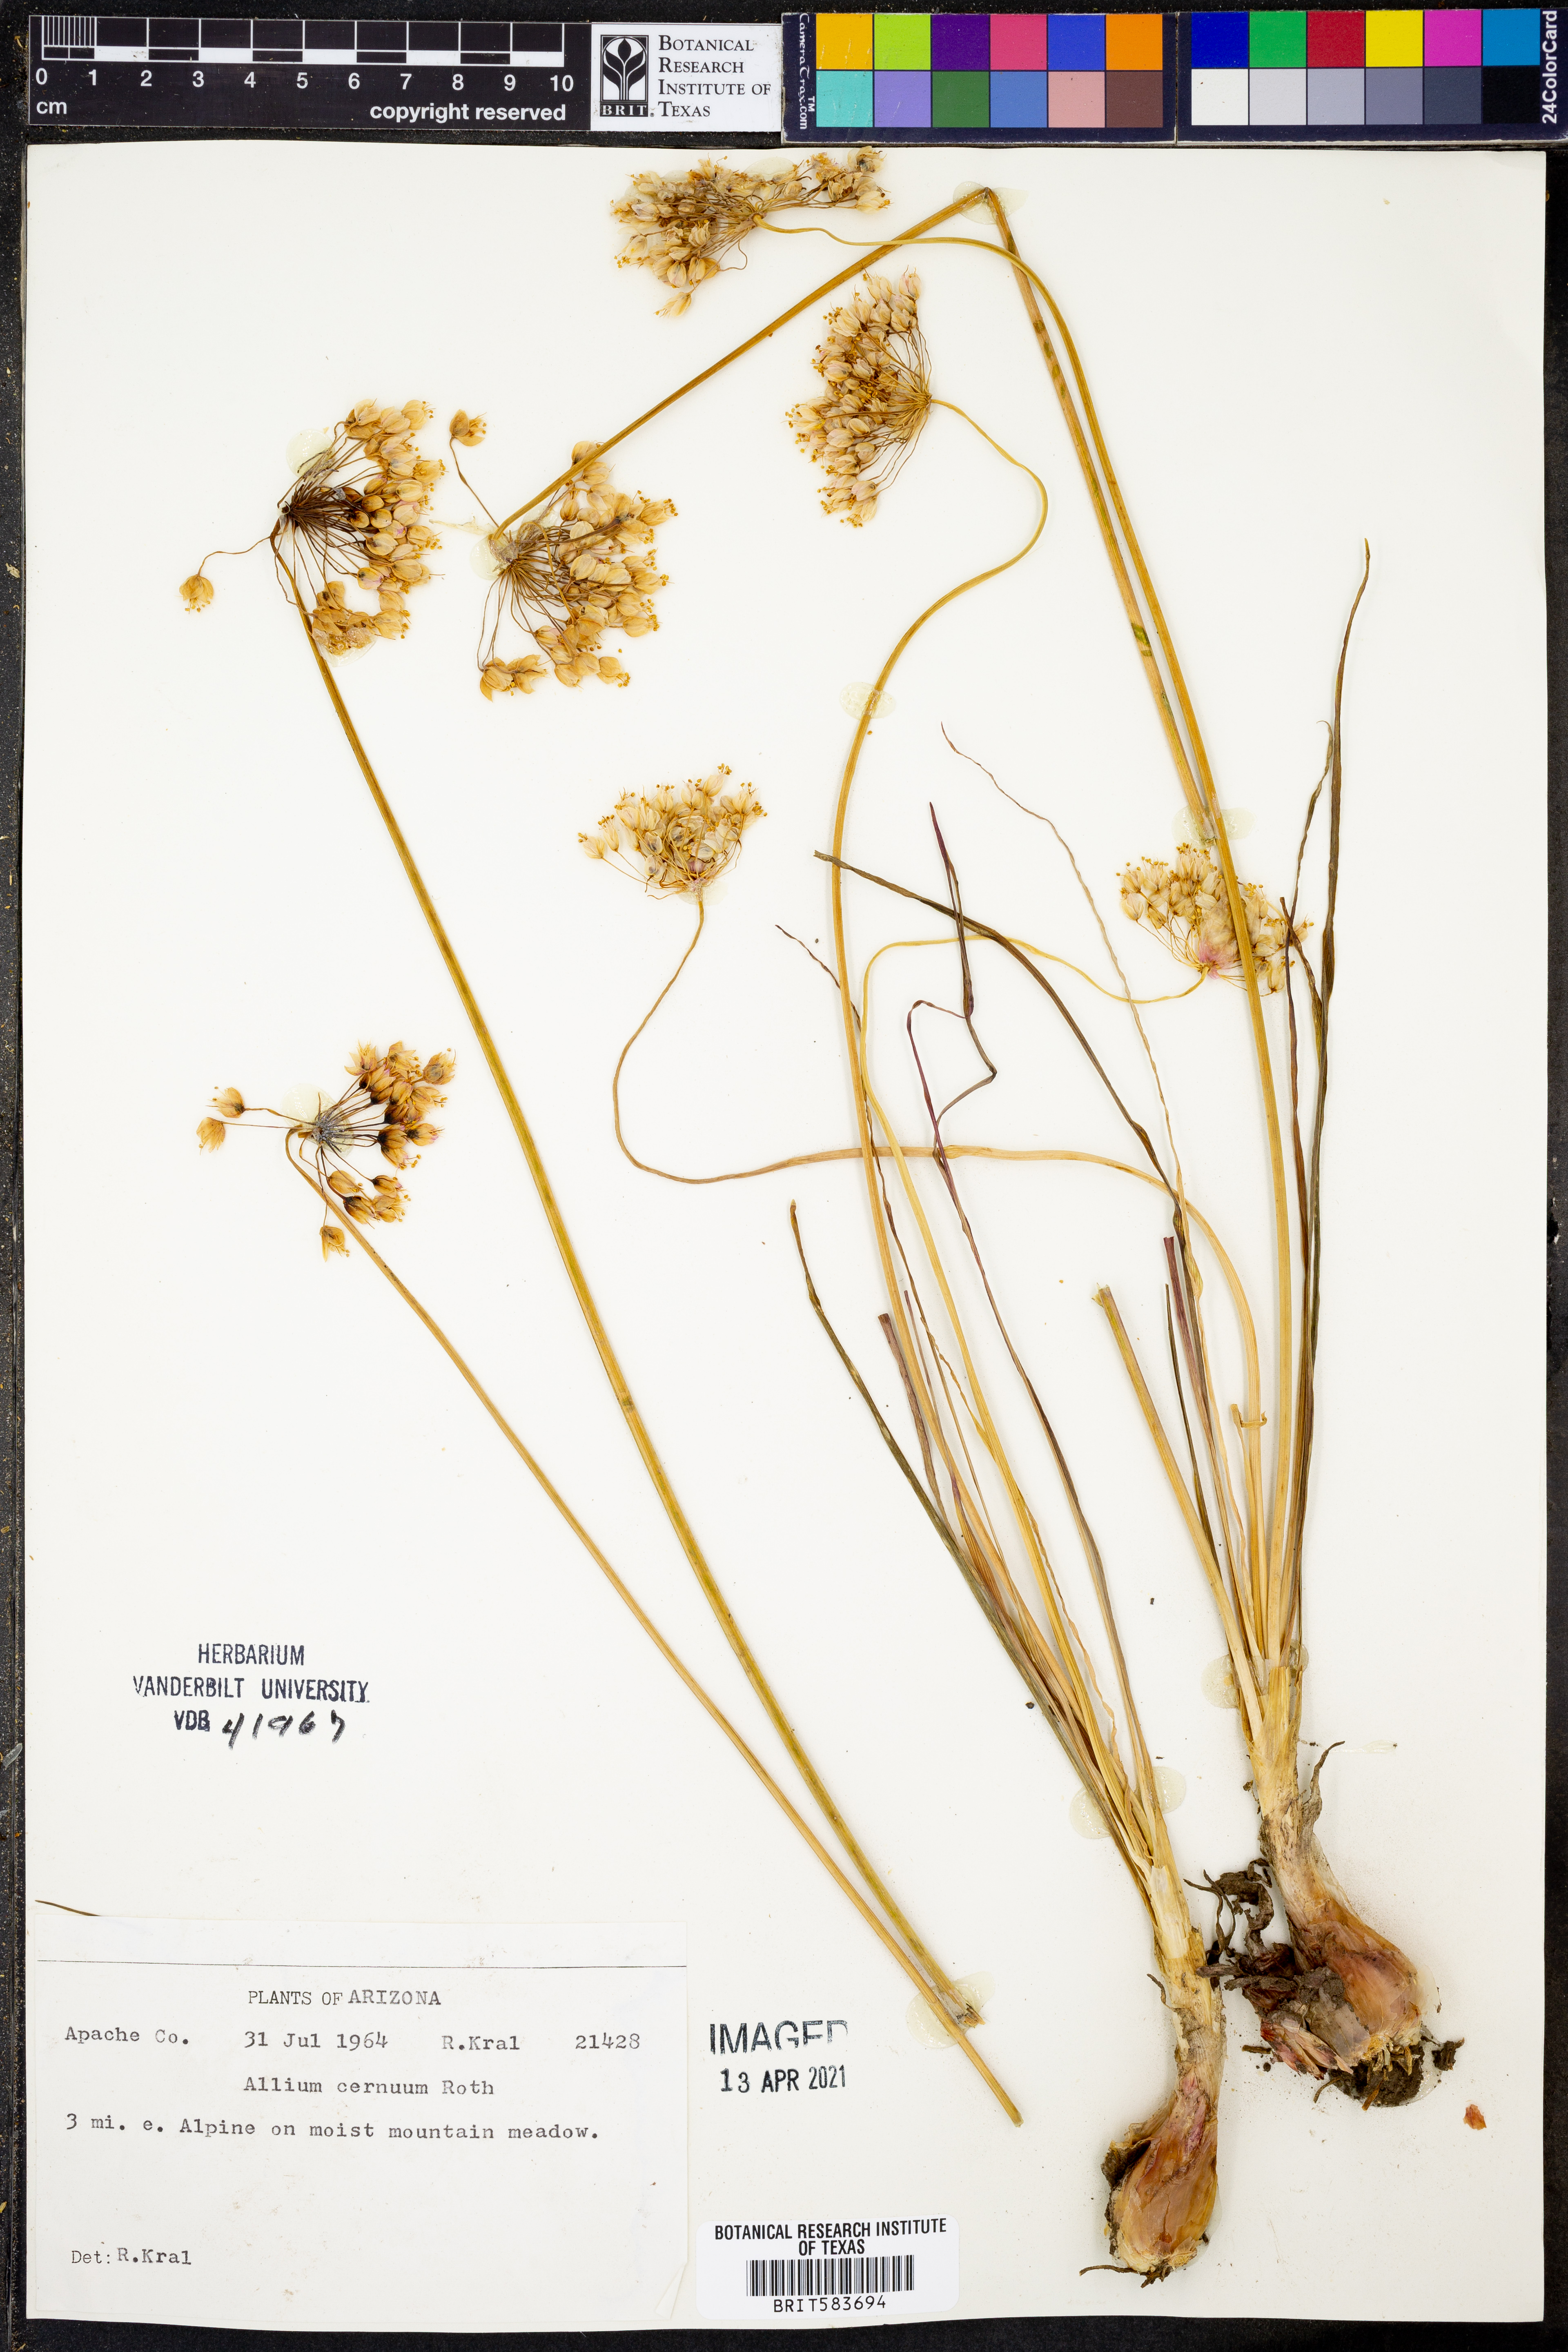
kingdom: Plantae
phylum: Tracheophyta
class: Liliopsida
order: Asparagales
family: Amaryllidaceae
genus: Allium
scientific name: Allium cernuum
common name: Nodding onion
